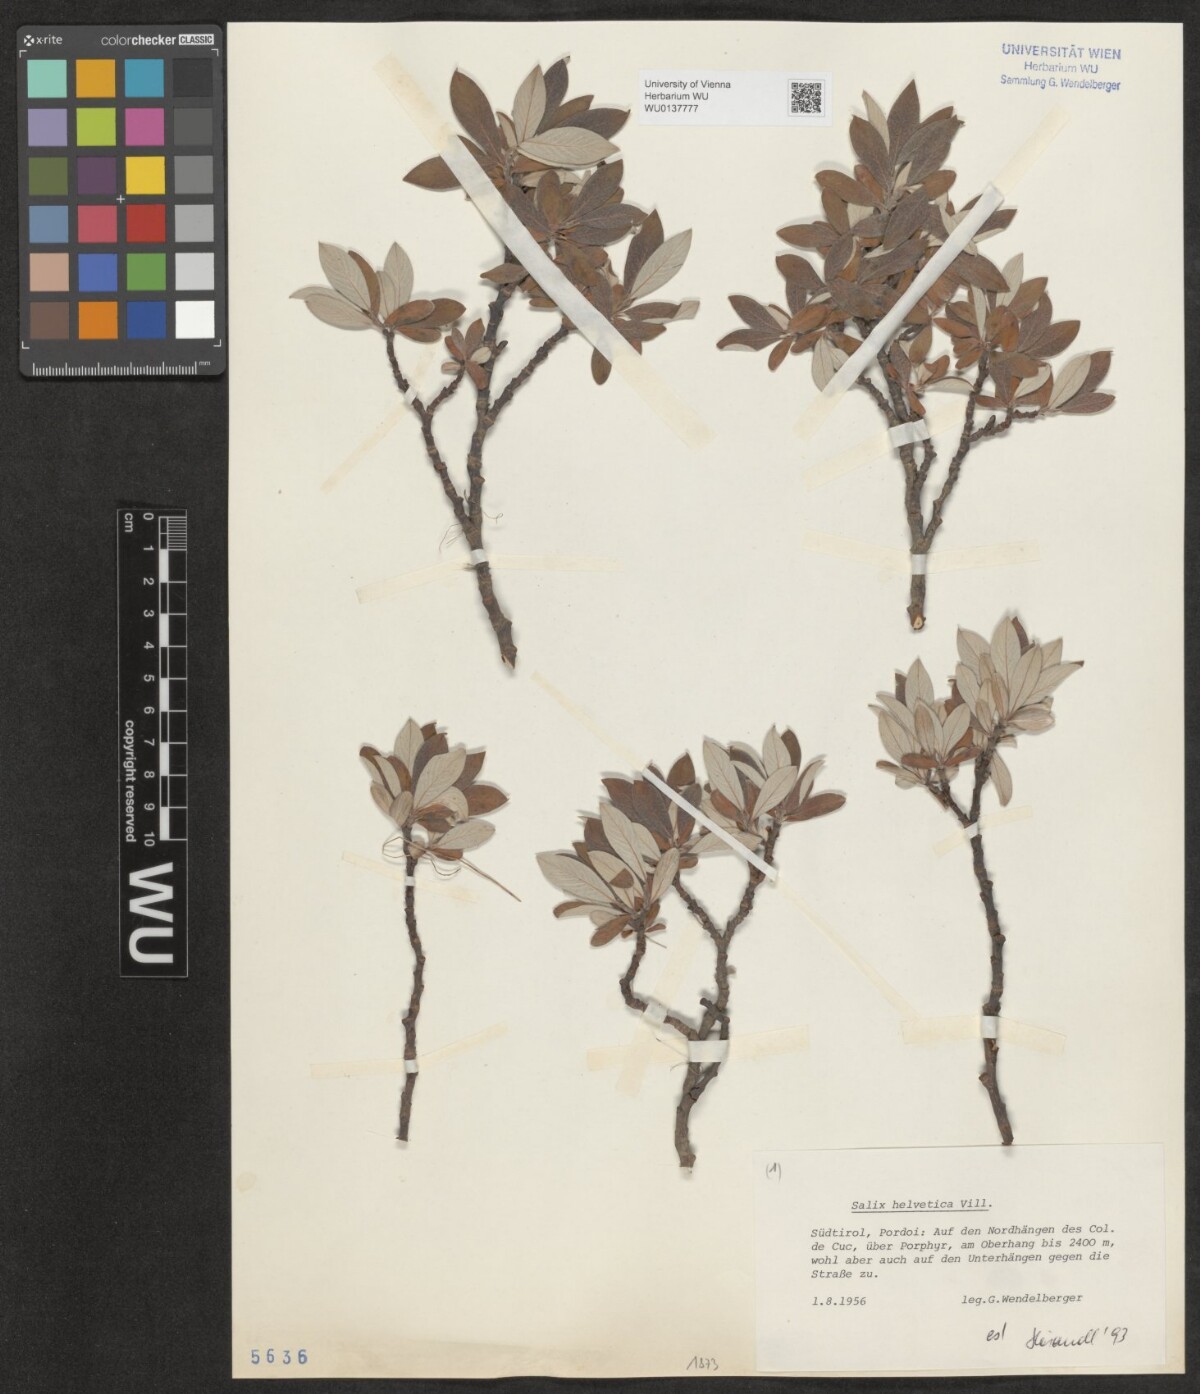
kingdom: Plantae
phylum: Tracheophyta
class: Magnoliopsida
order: Malpighiales
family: Salicaceae
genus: Salix
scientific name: Salix helvetica
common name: Swiss willow
